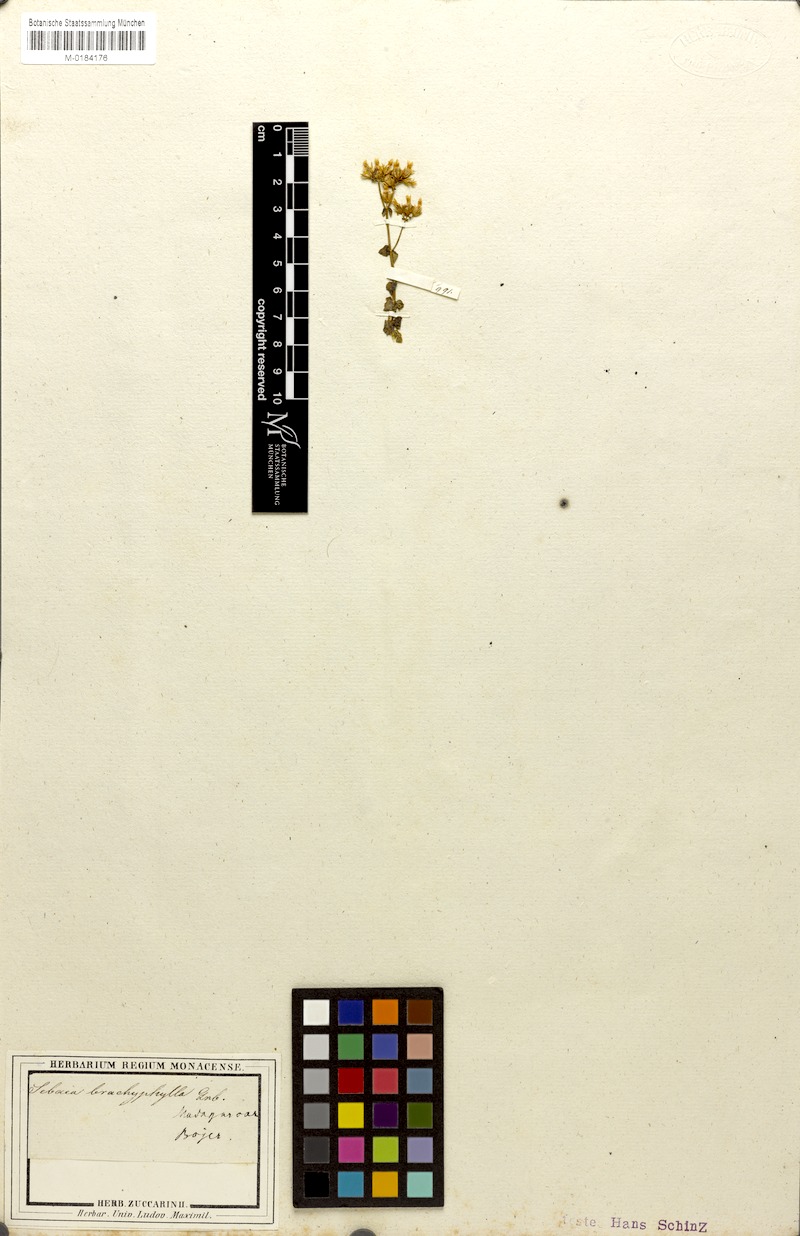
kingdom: Plantae
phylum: Tracheophyta
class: Magnoliopsida
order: Gentianales
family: Gentianaceae
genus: Sebaea
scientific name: Sebaea brachyphylla
